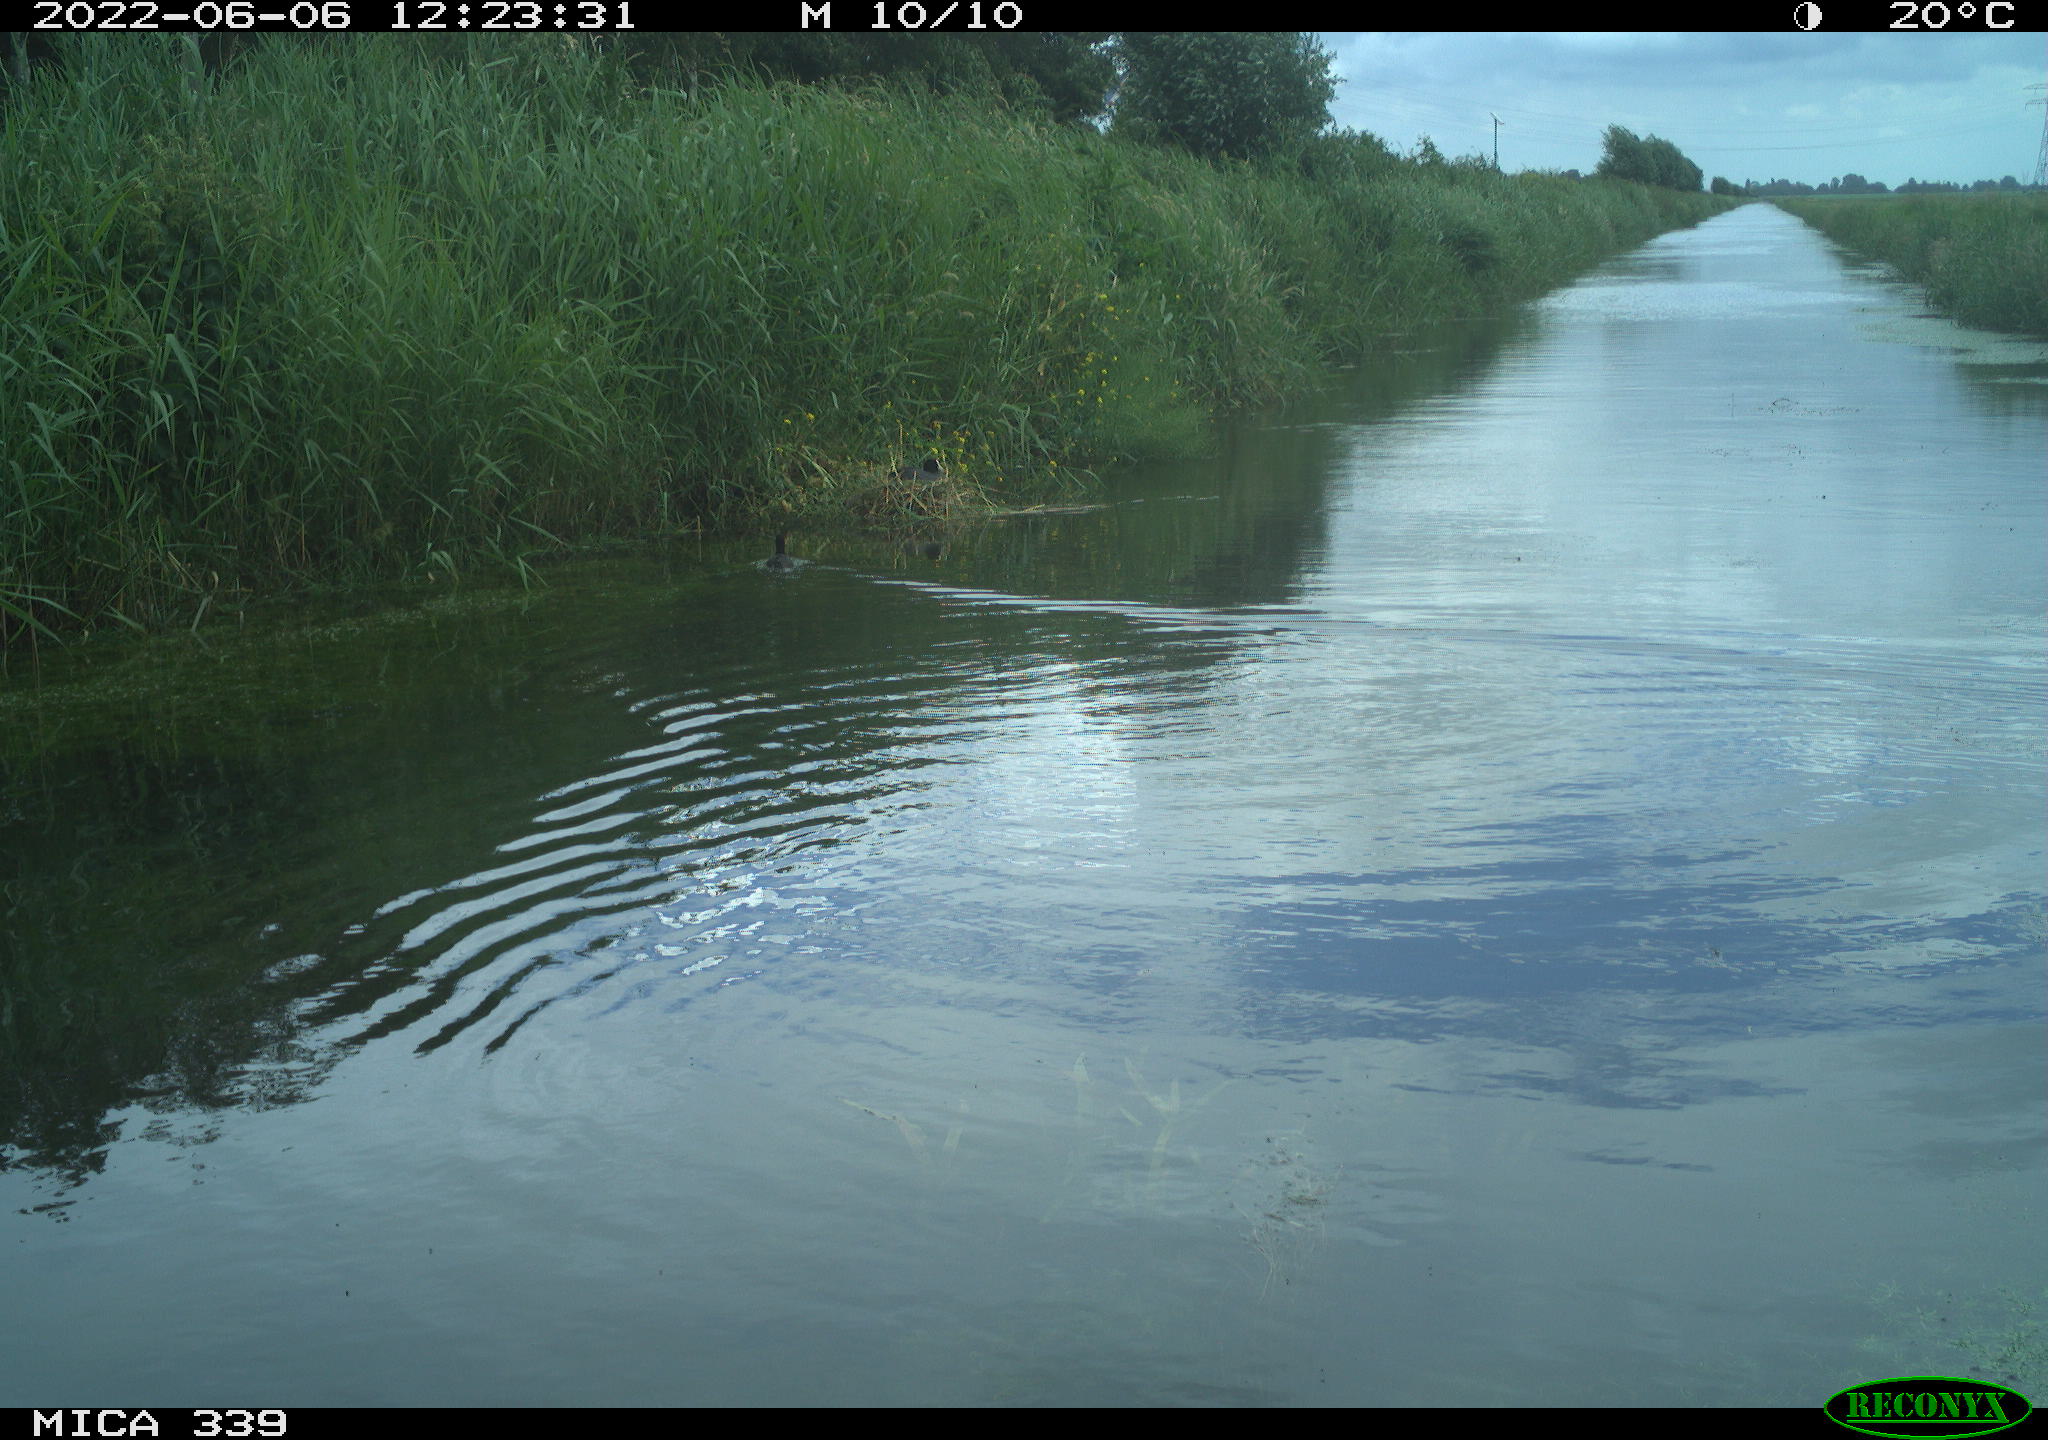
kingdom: Animalia
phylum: Chordata
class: Aves
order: Gruiformes
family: Rallidae
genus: Fulica
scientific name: Fulica atra
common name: Eurasian coot
